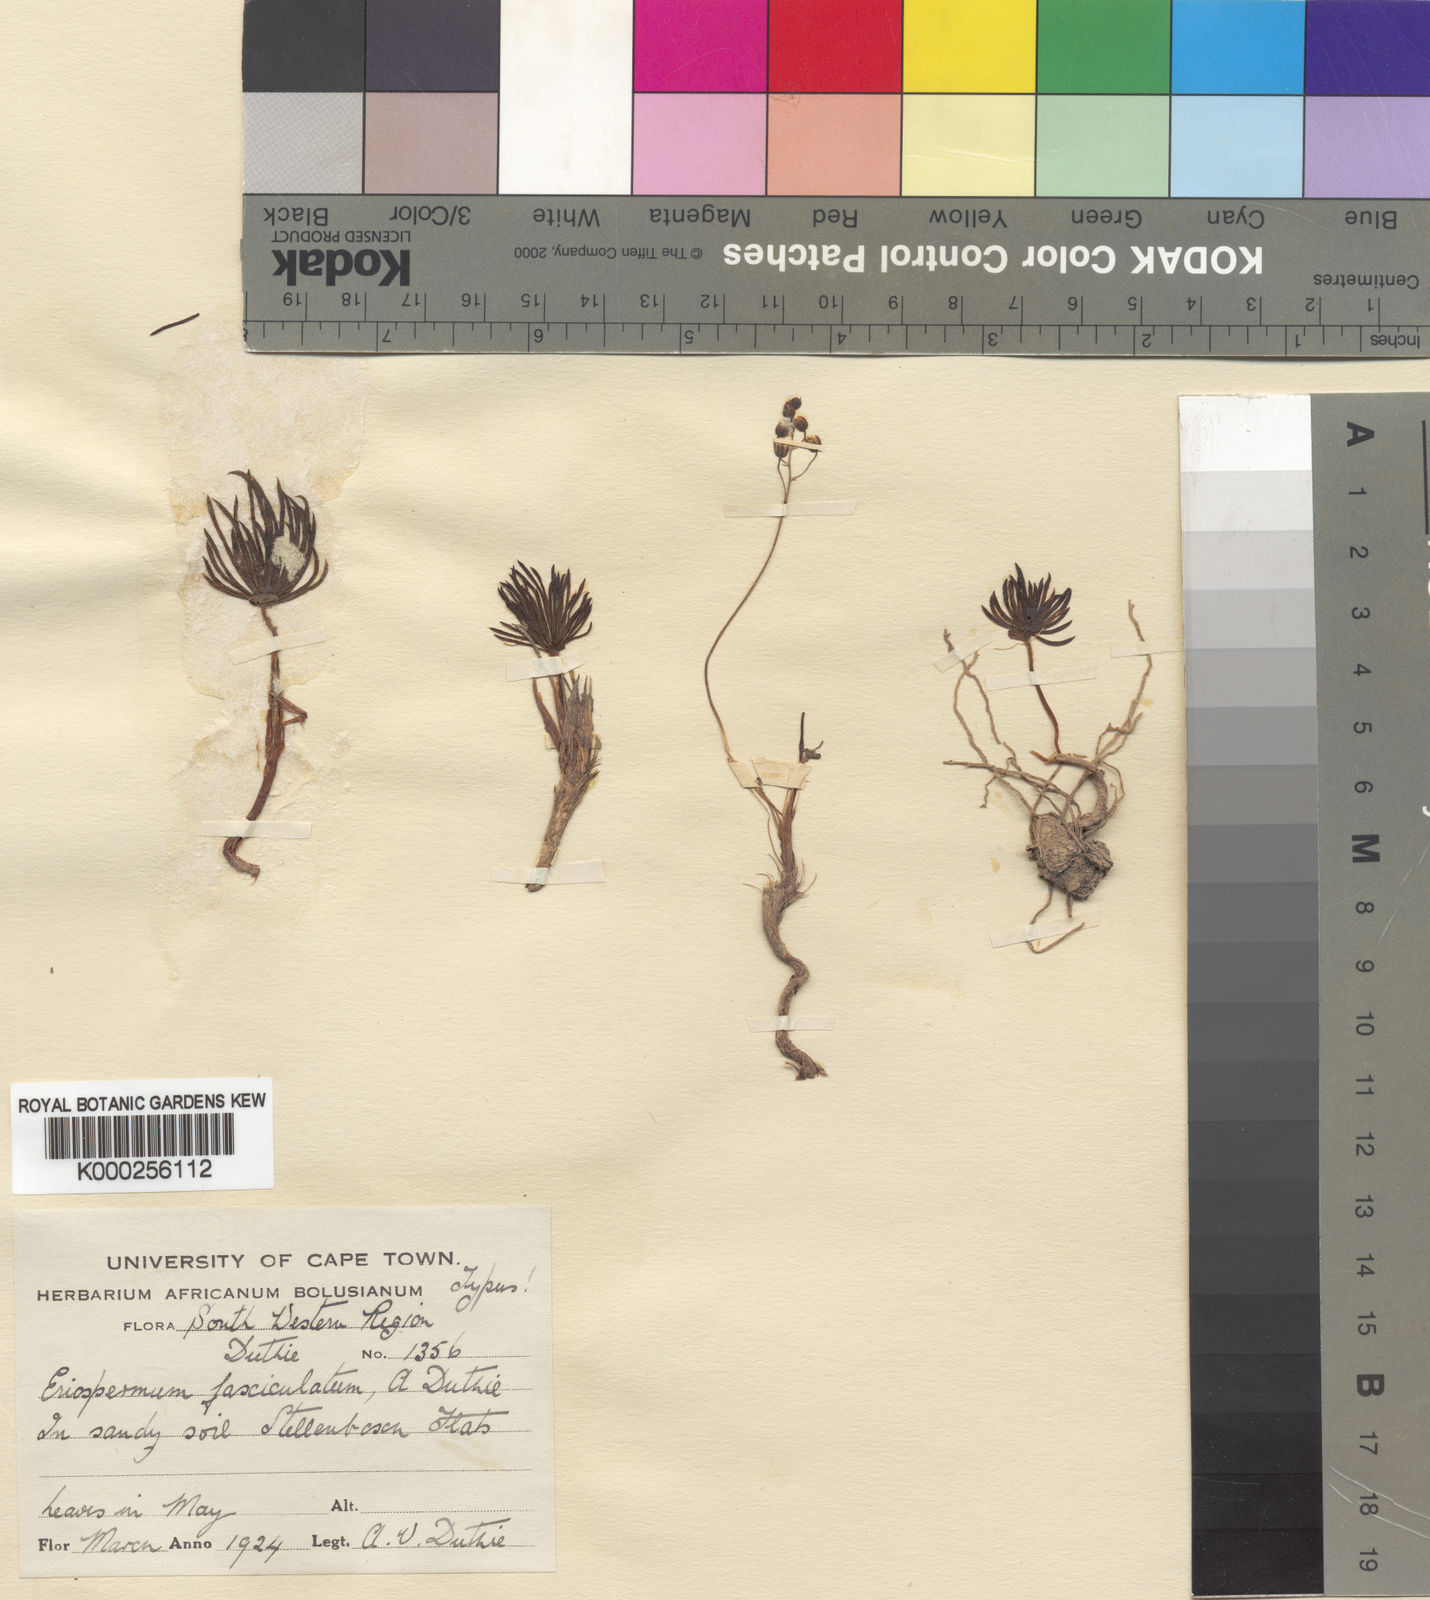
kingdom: Plantae
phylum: Tracheophyta
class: Liliopsida
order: Asparagales
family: Asparagaceae
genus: Eriospermum
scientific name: Eriospermum proliferum
